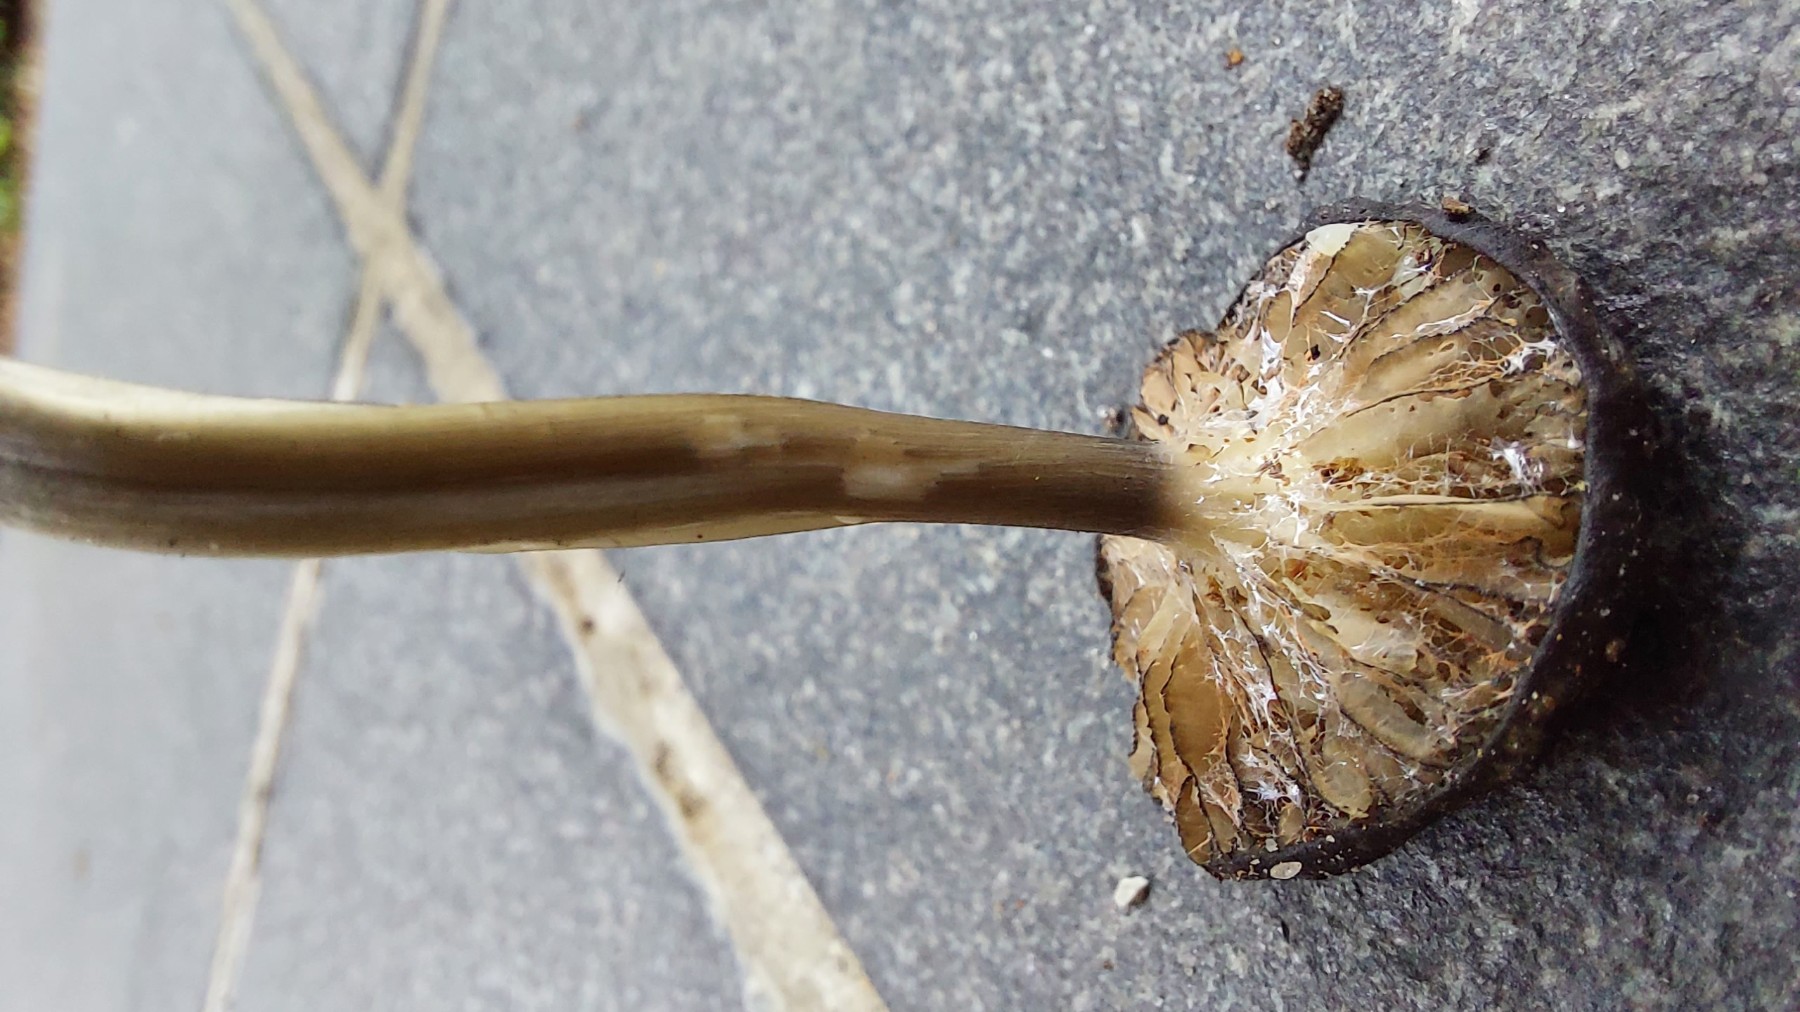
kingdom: Fungi
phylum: Basidiomycota
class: Agaricomycetes
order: Agaricales
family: Entolomataceae
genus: Entoloma
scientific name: Entoloma
